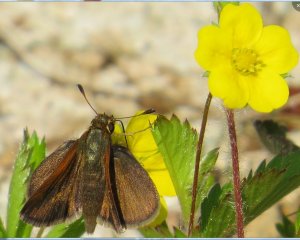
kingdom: Animalia
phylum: Arthropoda
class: Insecta
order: Lepidoptera
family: Hesperiidae
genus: Euphyes
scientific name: Euphyes vestris
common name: Dun Skipper
